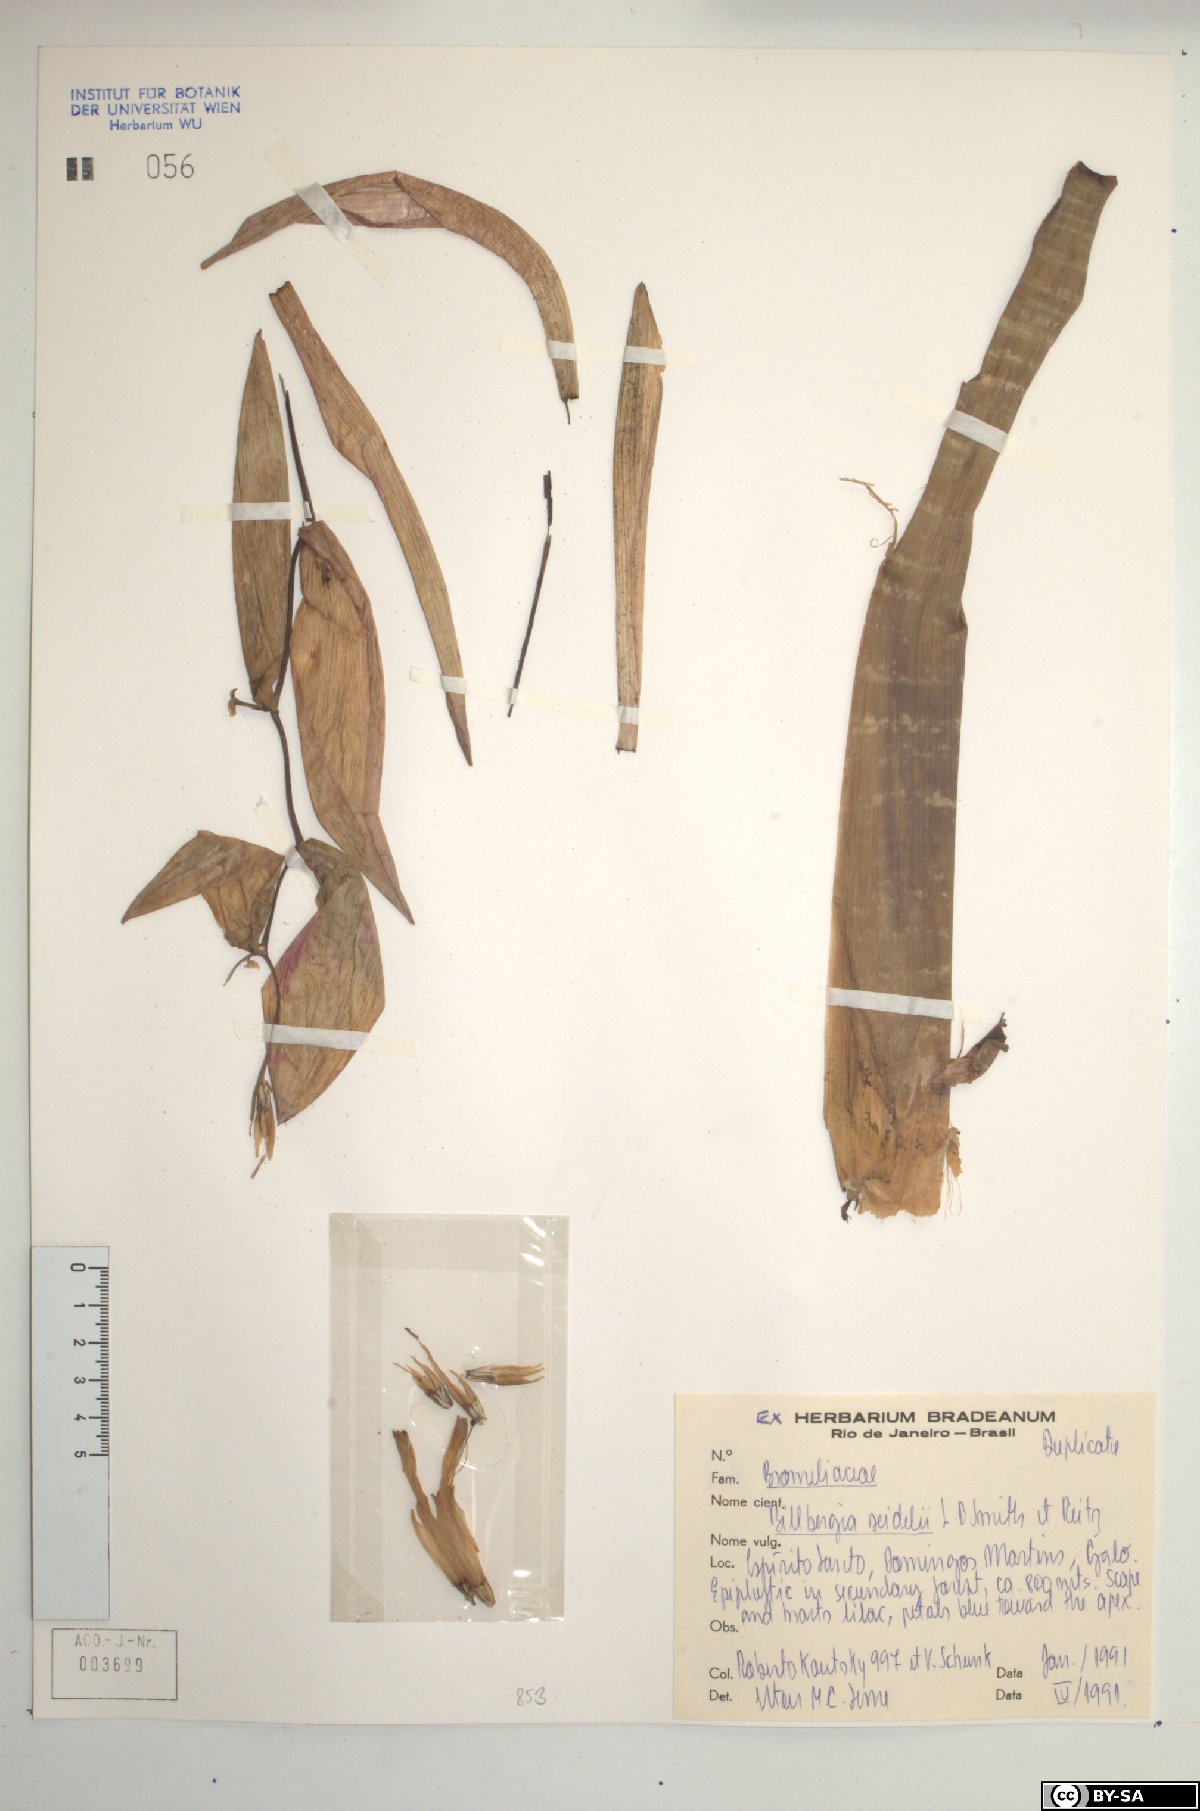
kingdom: Plantae
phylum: Tracheophyta
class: Liliopsida
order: Poales
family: Bromeliaceae
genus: Billbergia
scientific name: Billbergia seidelii
